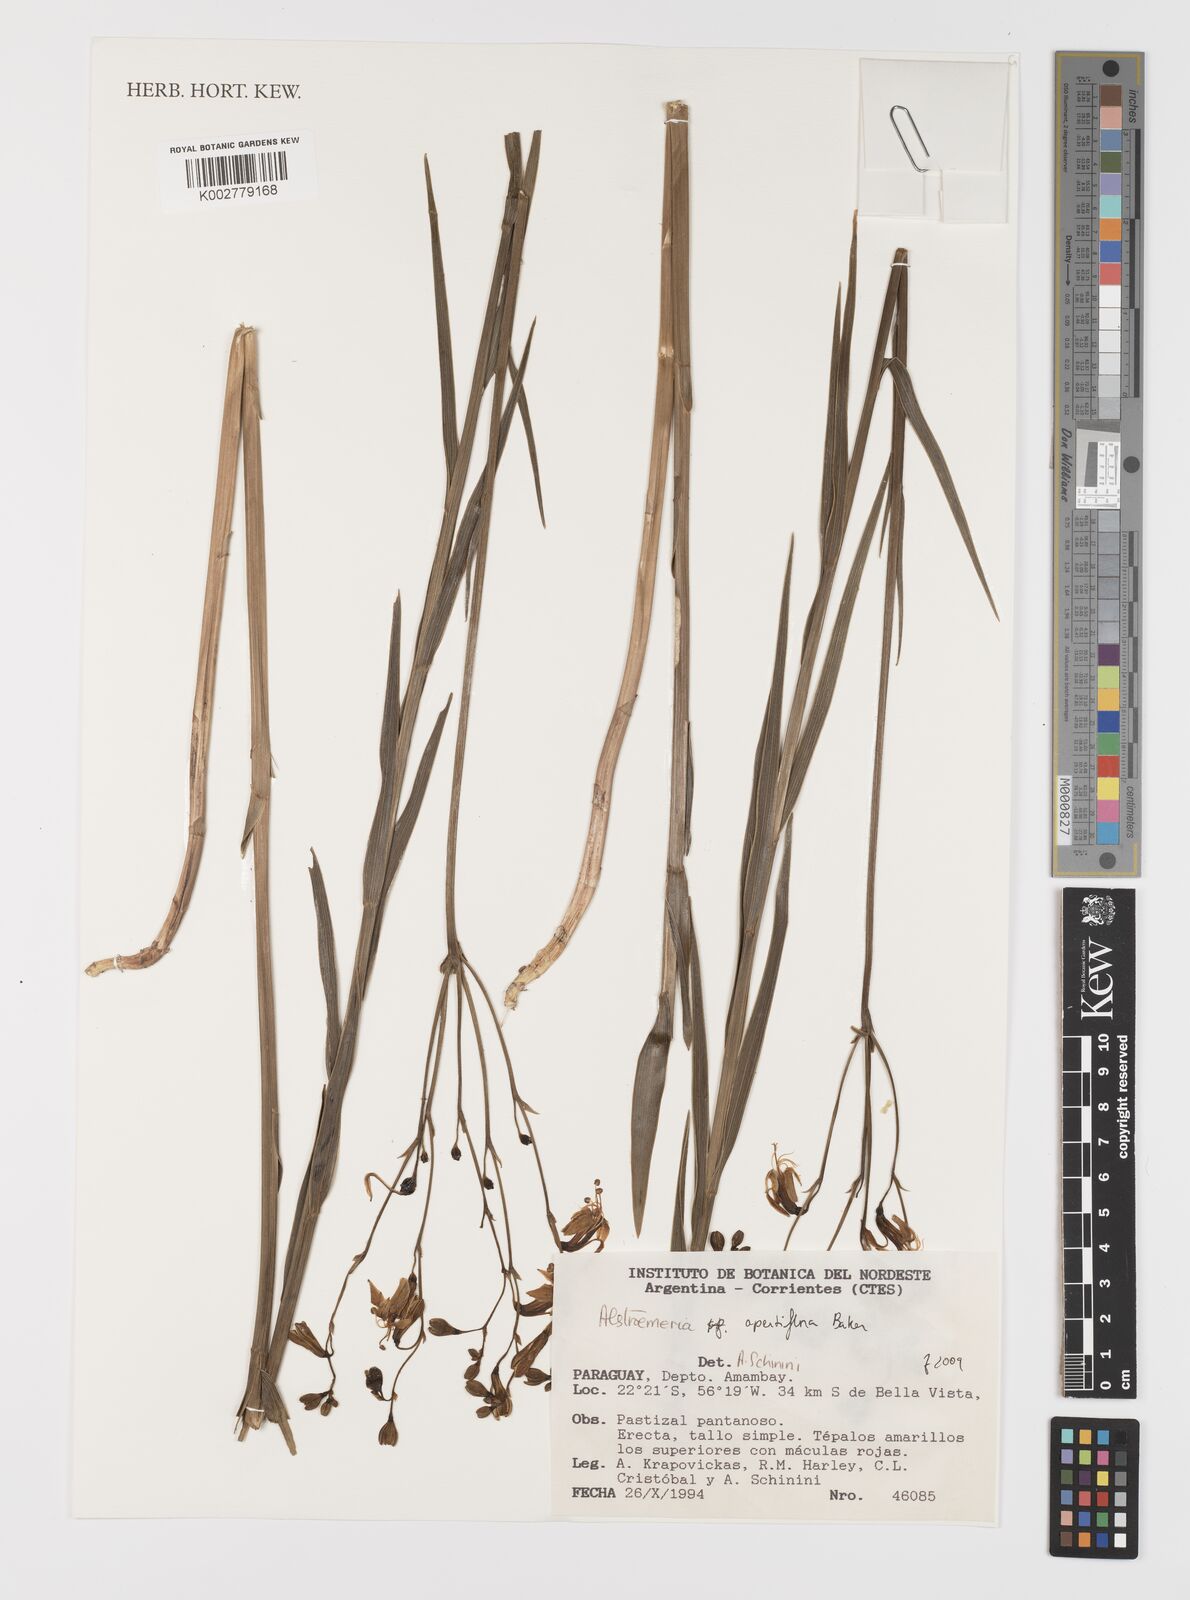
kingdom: Plantae
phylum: Tracheophyta
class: Liliopsida
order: Liliales
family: Alstroemeriaceae
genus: Alstroemeria
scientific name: Alstroemeria apertiflora
